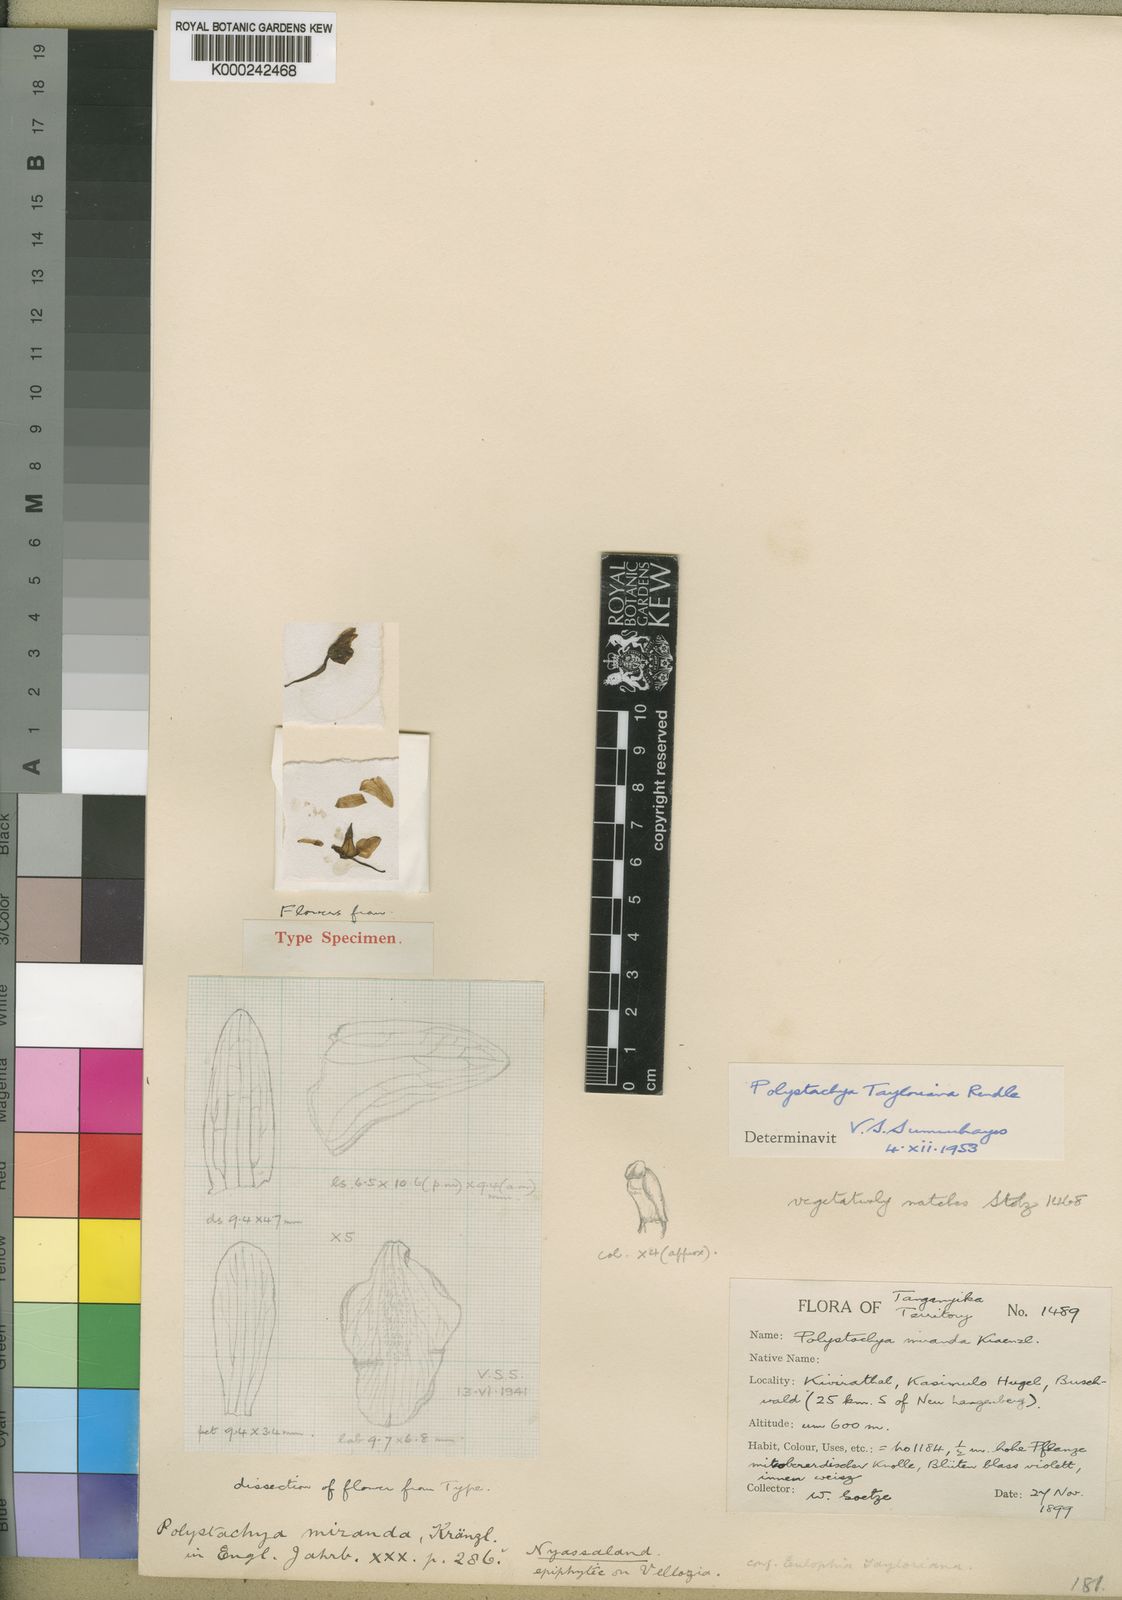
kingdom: Plantae
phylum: Tracheophyta
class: Liliopsida
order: Asparagales
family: Orchidaceae
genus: Polystachya
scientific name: Polystachya dendrobiiflora
